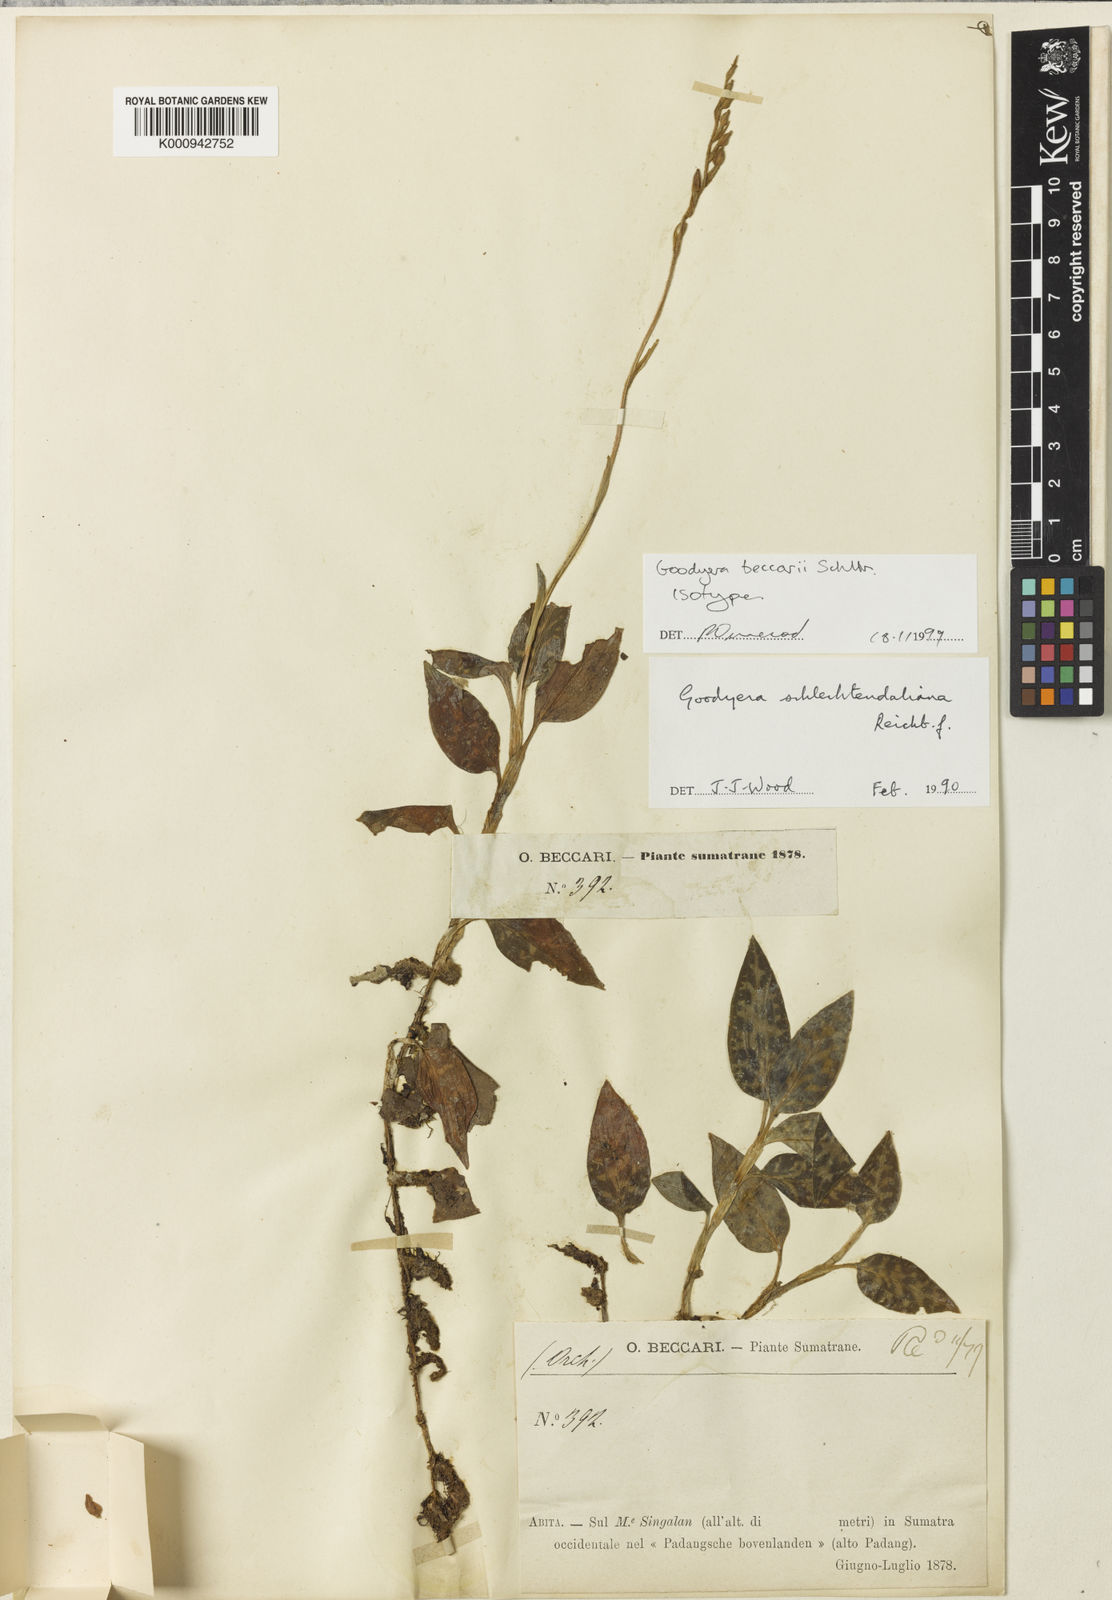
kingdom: Plantae
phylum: Tracheophyta
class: Liliopsida
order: Asparagales
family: Orchidaceae
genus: Goodyera
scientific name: Goodyera schlechtendaliana
